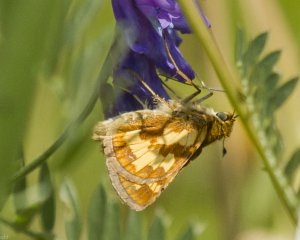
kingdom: Animalia
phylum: Arthropoda
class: Insecta
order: Lepidoptera
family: Hesperiidae
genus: Polites
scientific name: Polites coras
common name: Peck's Skipper
